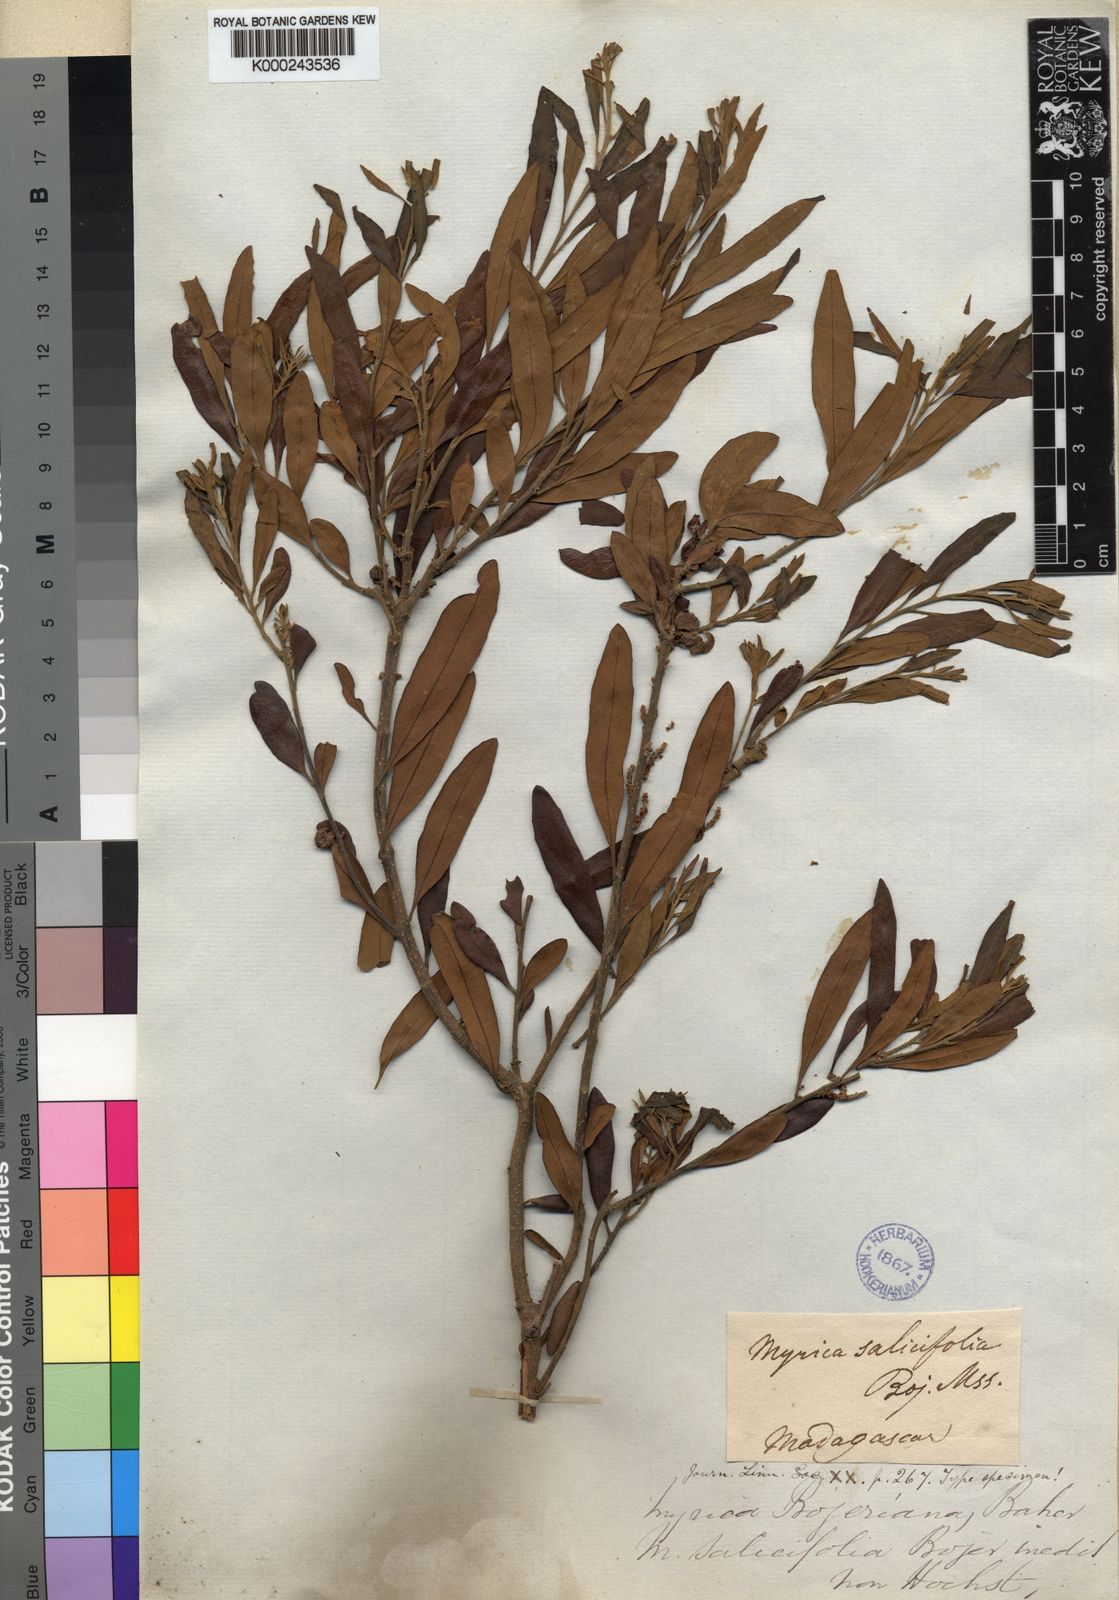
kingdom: Plantae
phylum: Tracheophyta
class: Magnoliopsida
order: Fagales
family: Myricaceae
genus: Morella
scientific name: Morella serrata
